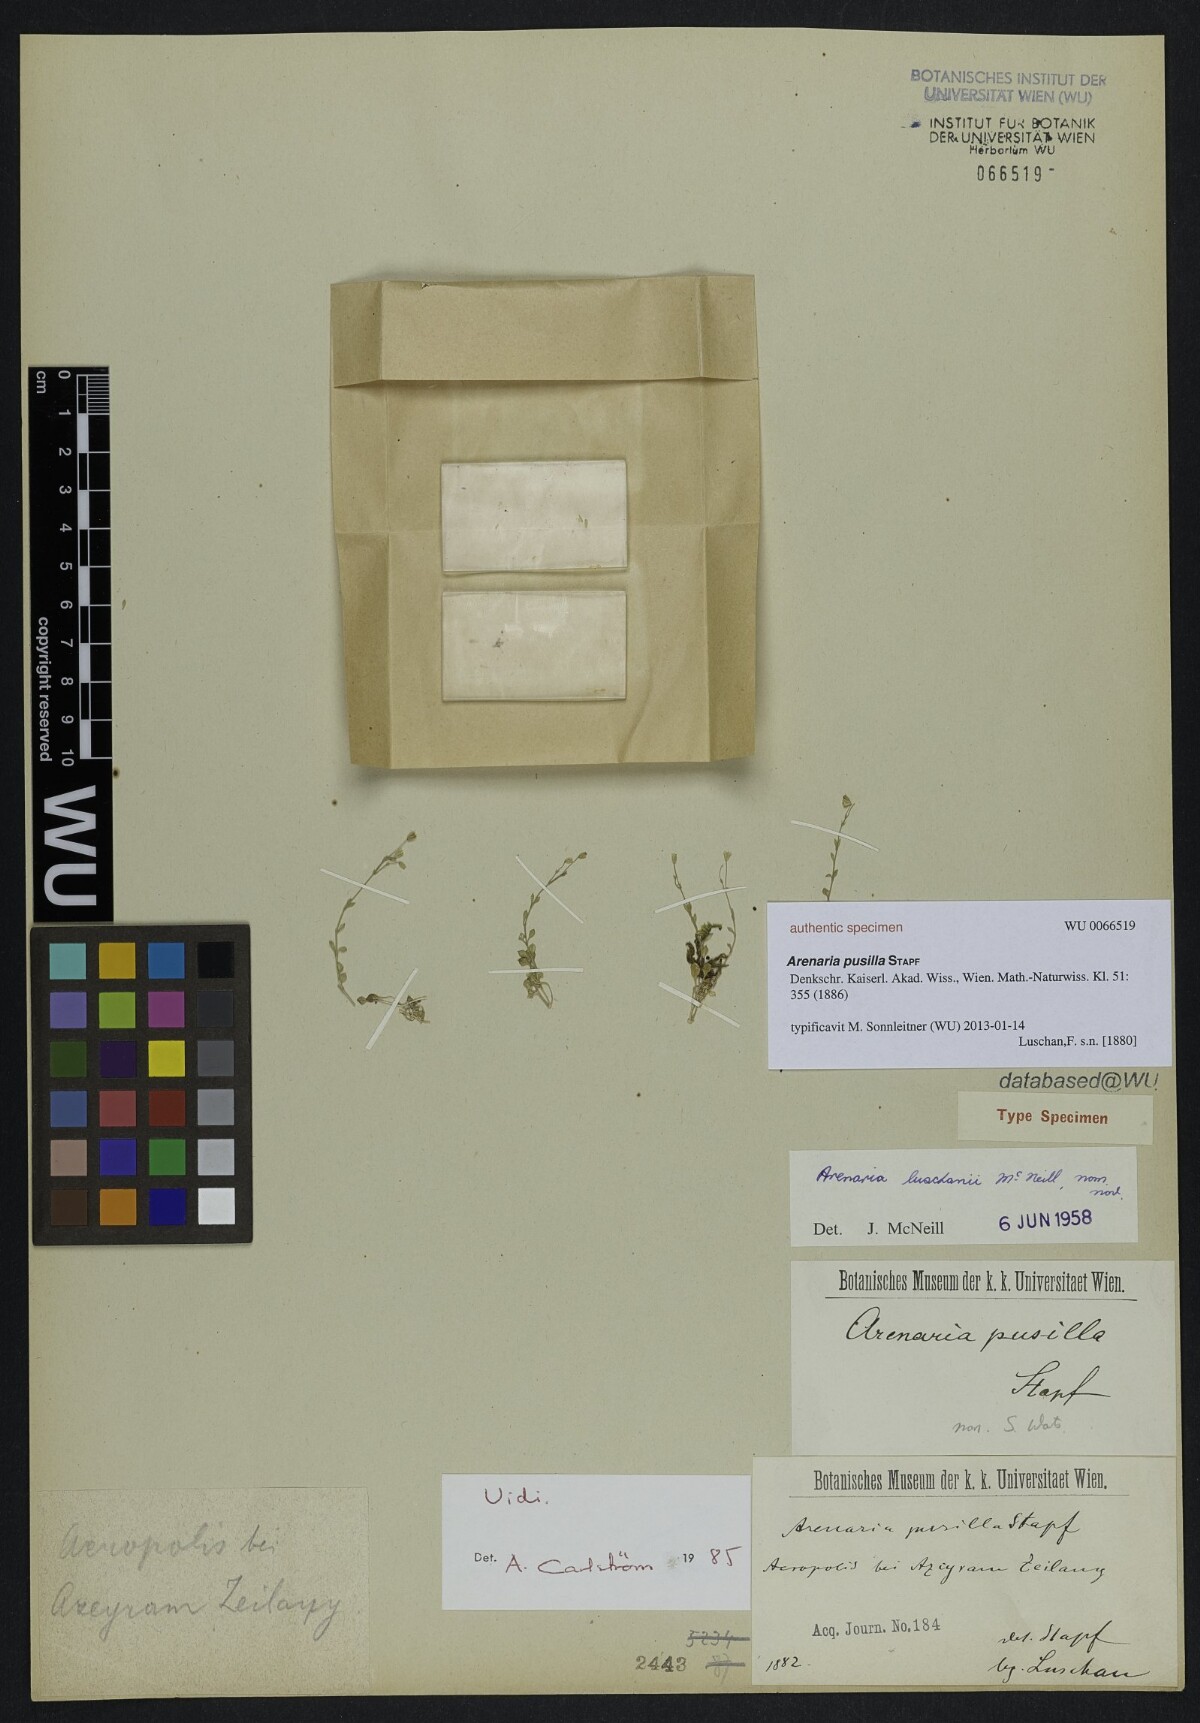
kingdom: Plantae
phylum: Tracheophyta
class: Magnoliopsida
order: Caryophyllales
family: Caryophyllaceae
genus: Arenaria
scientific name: Arenaria luschanii
